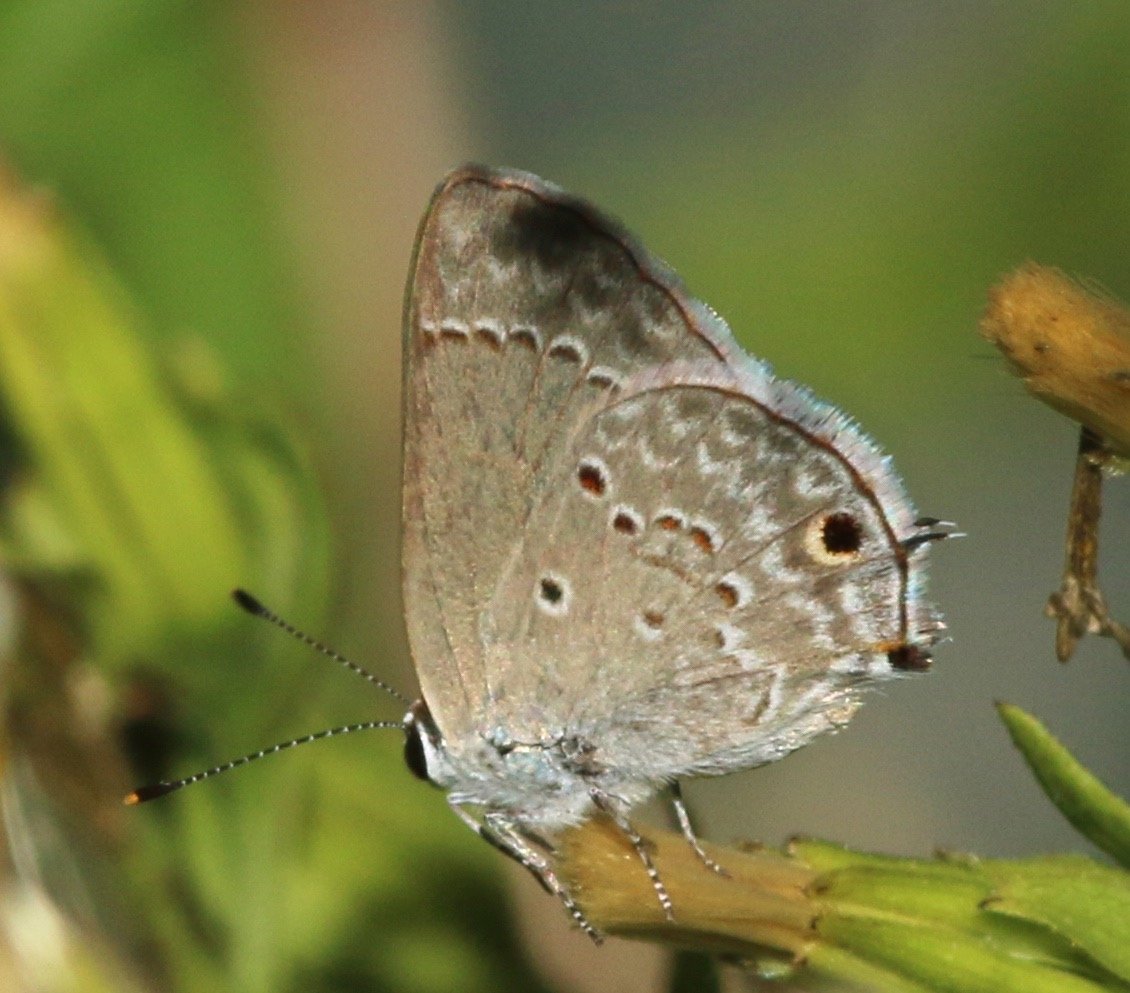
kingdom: Animalia
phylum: Arthropoda
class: Insecta
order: Lepidoptera
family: Lycaenidae
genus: Callicista
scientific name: Callicista columella
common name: Mallow Scrub-Hairstreak
